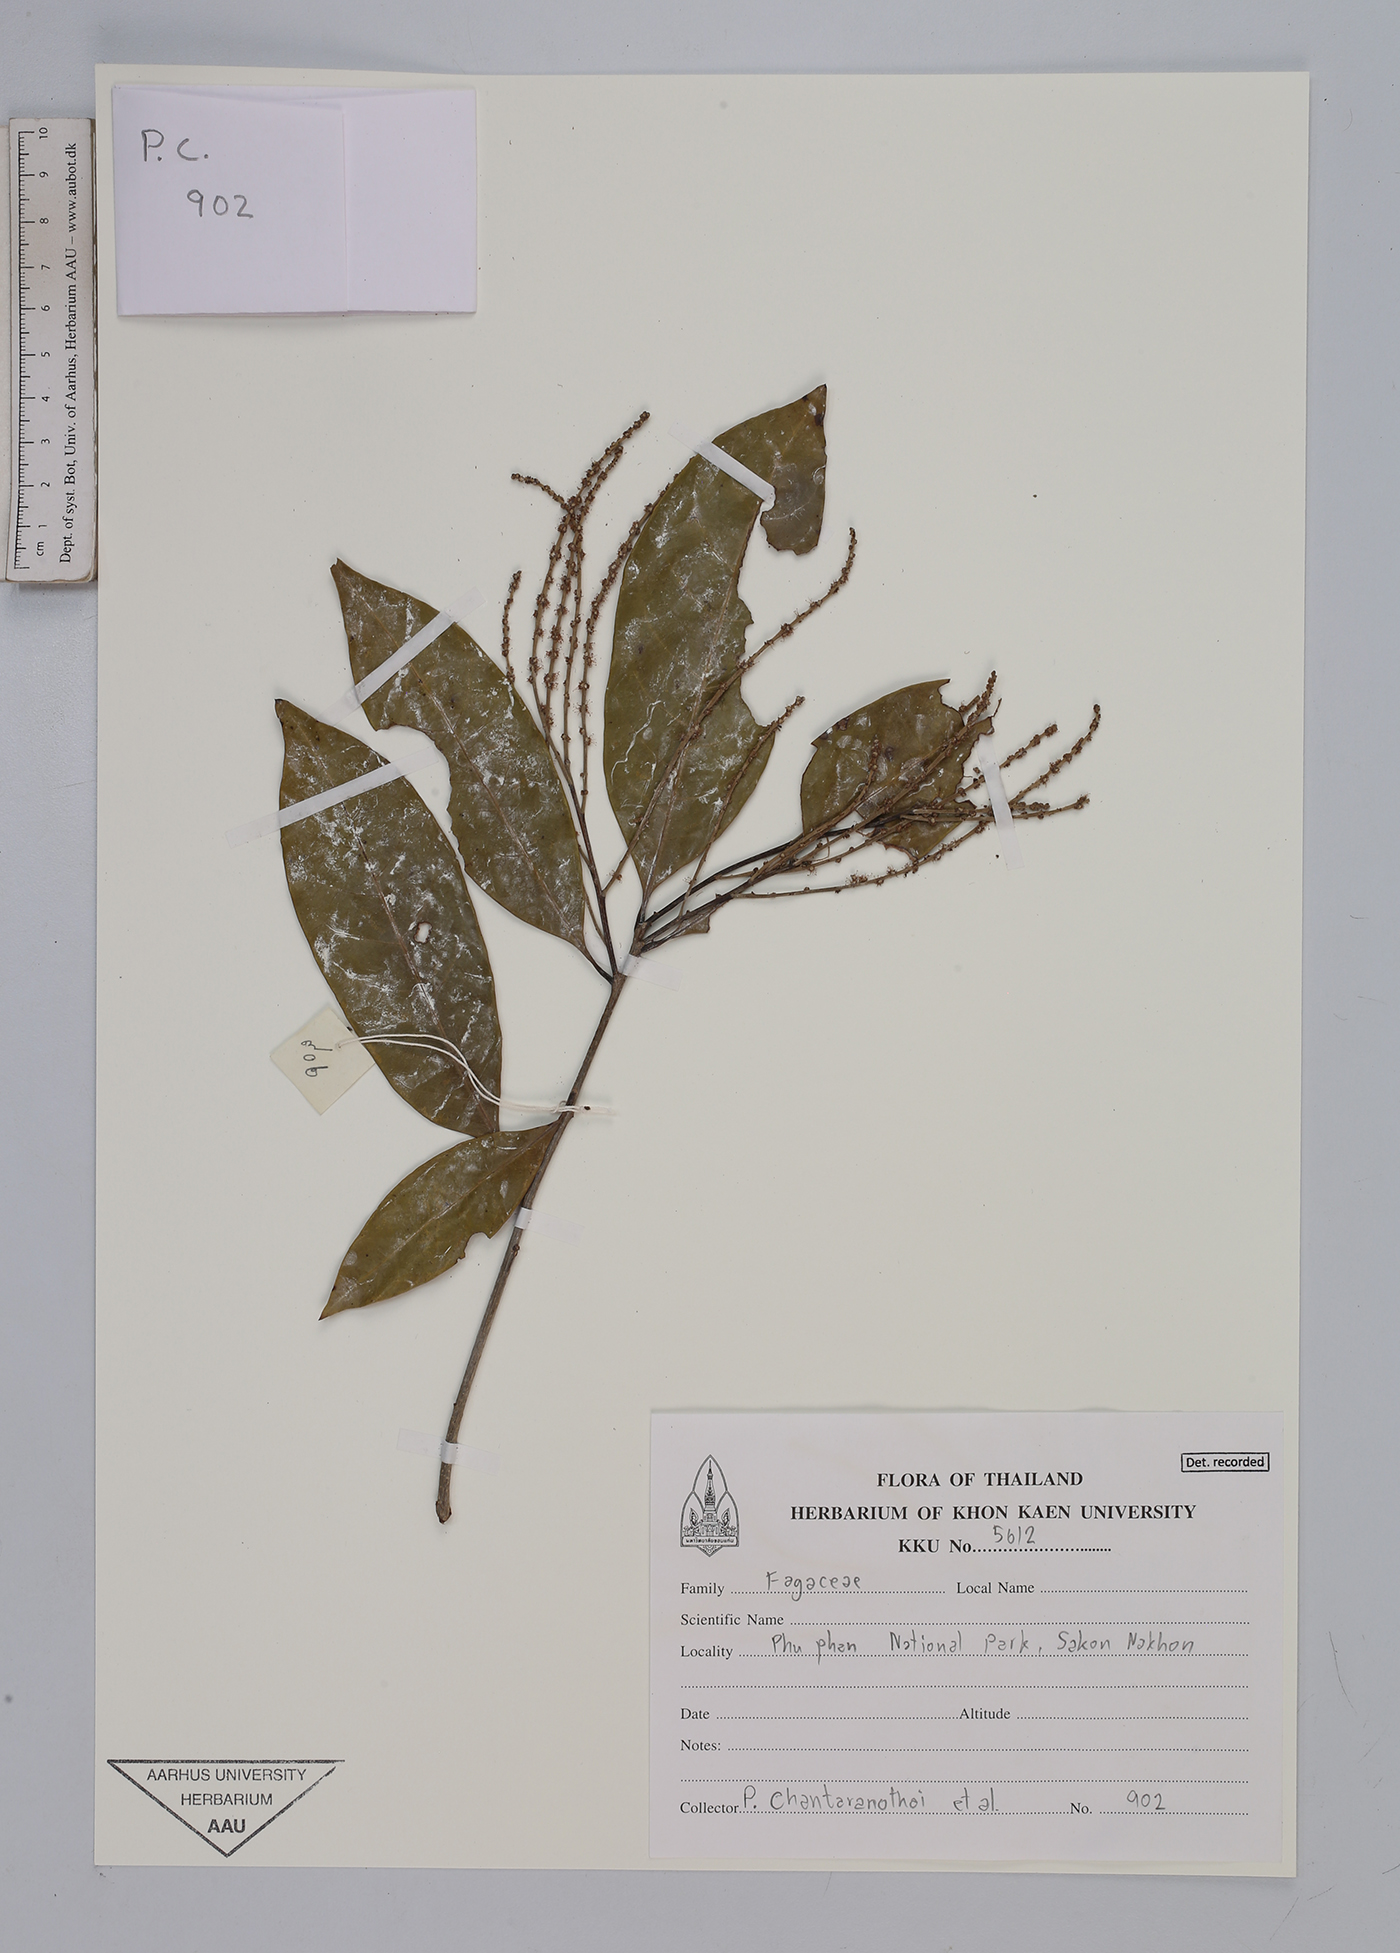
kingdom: Plantae
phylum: Tracheophyta
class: Magnoliopsida
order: Fagales
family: Fagaceae
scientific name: Fagaceae
